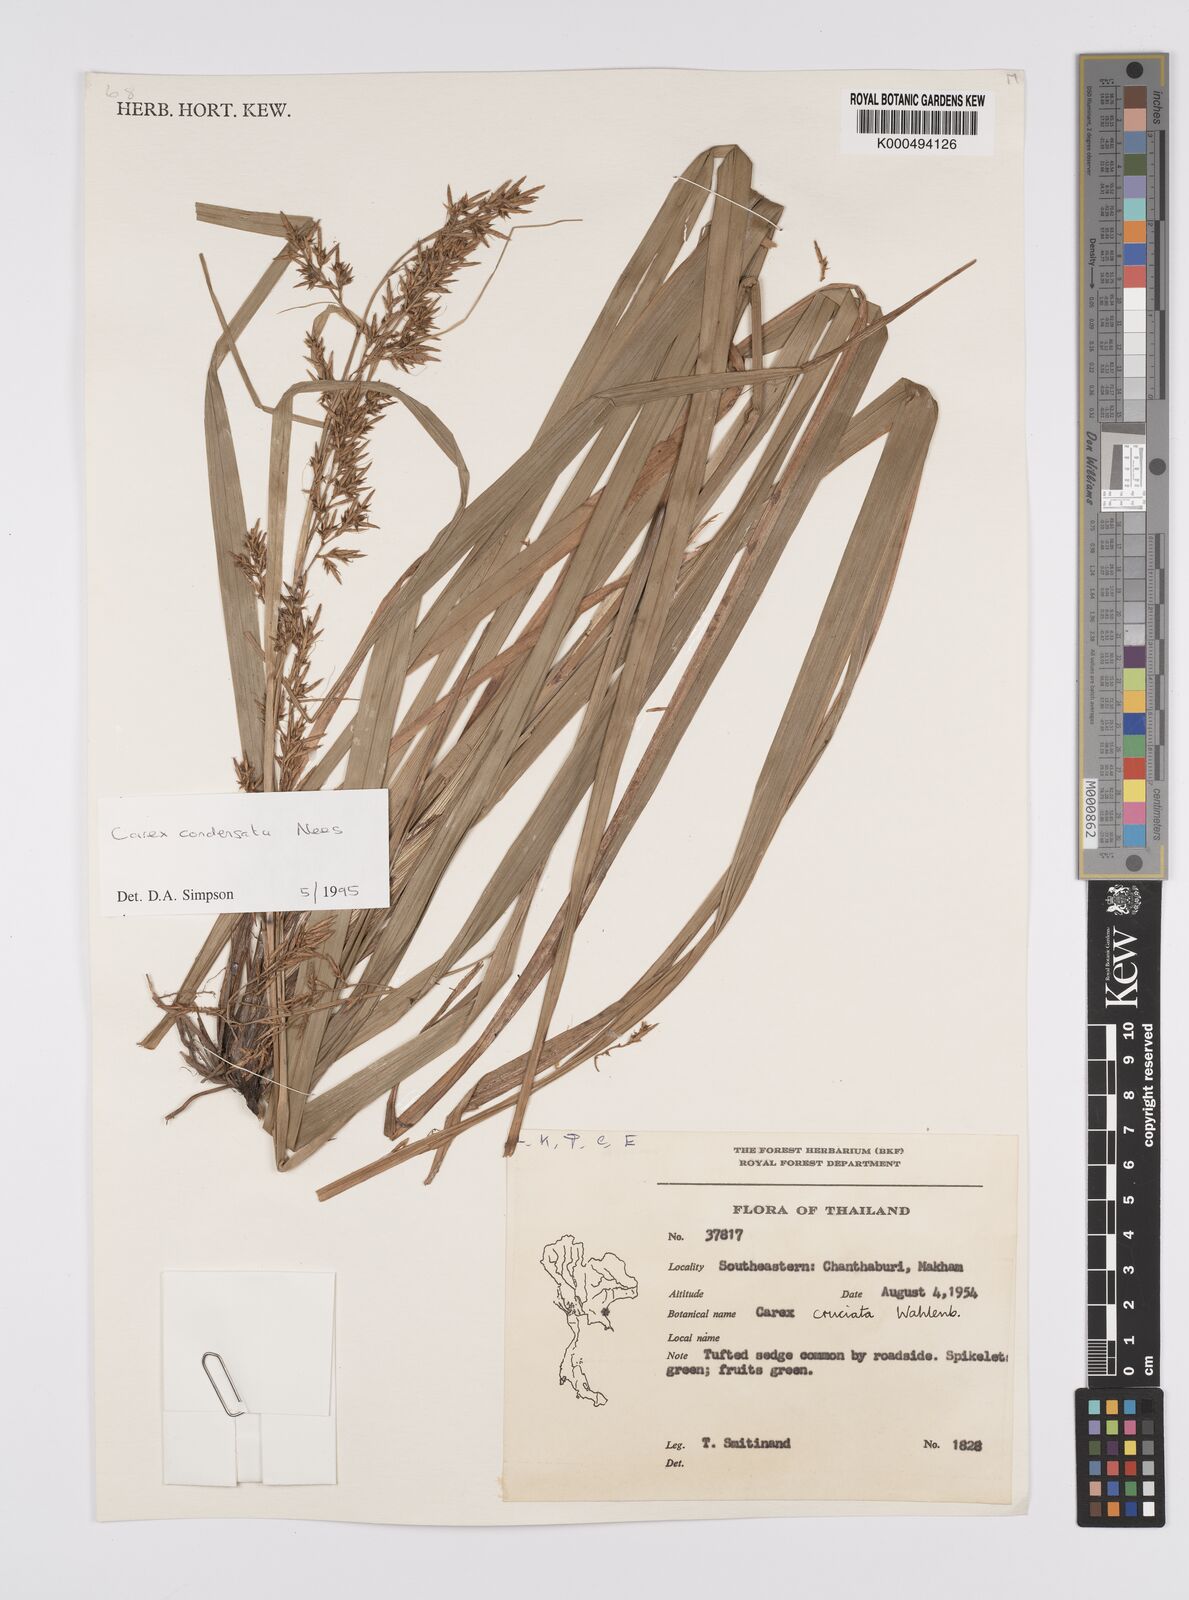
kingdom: Plantae
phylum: Tracheophyta
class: Liliopsida
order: Poales
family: Cyperaceae
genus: Carex
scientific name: Carex condensata
